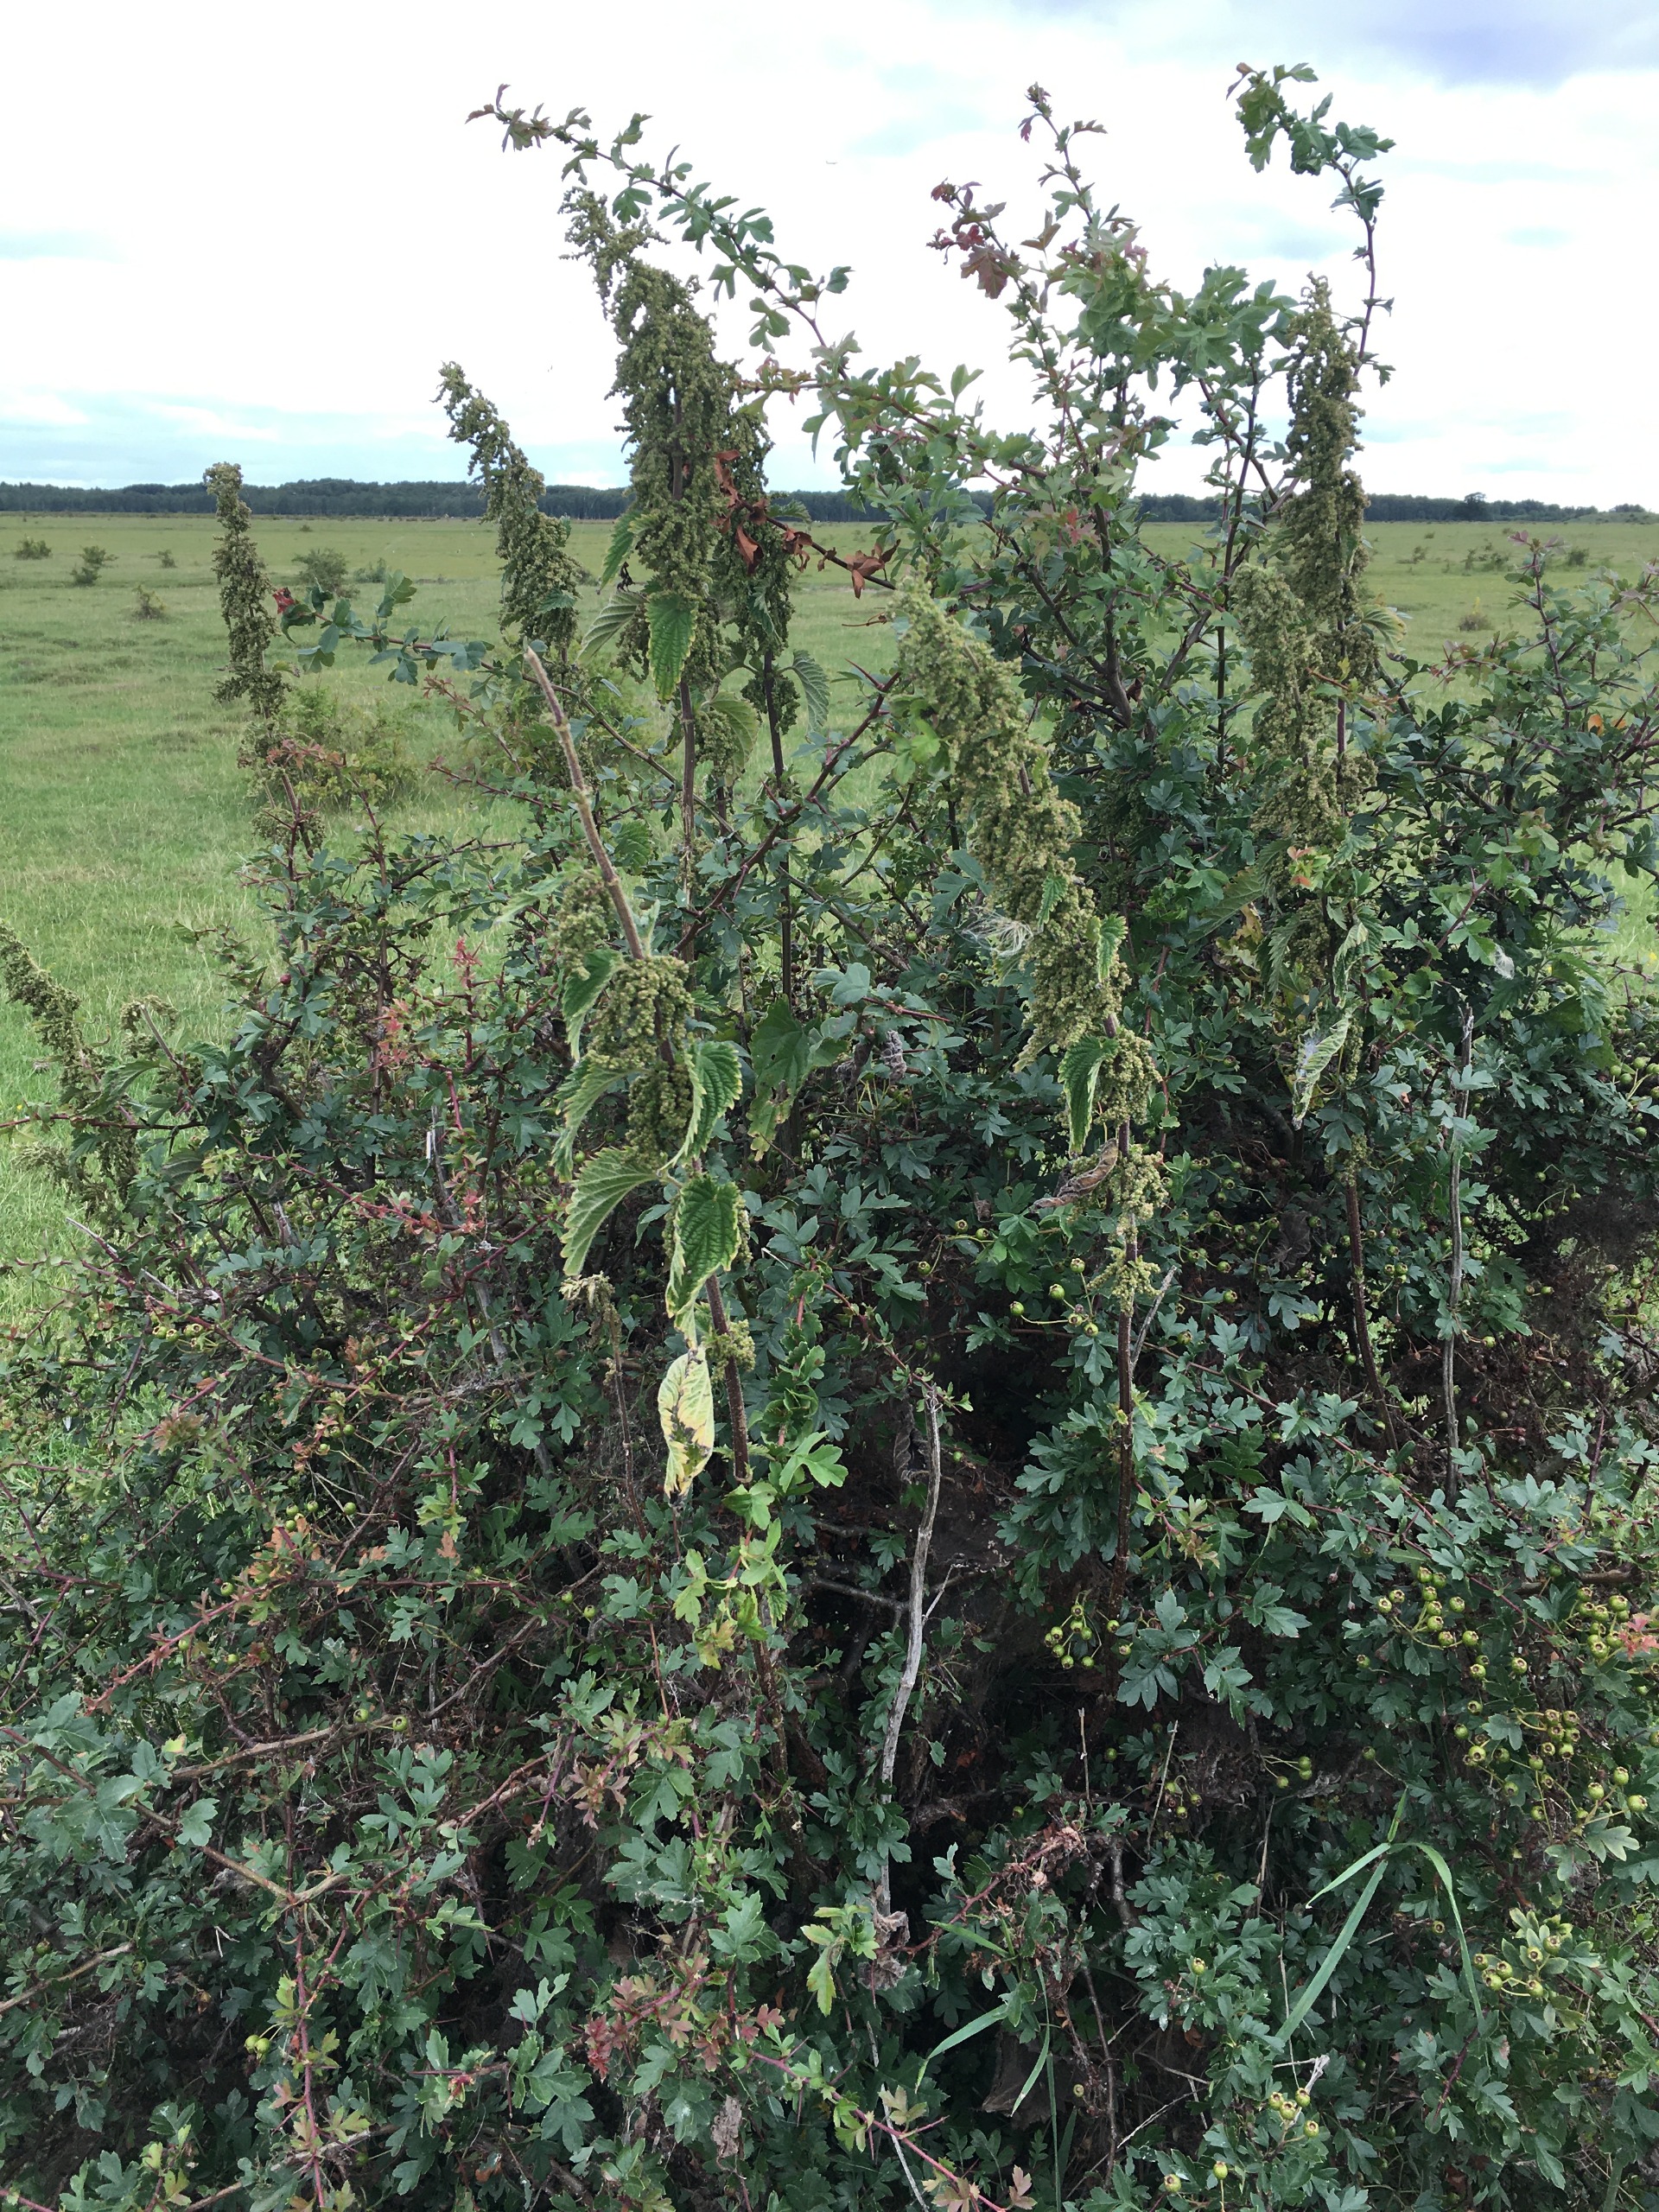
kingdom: Plantae
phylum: Tracheophyta
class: Magnoliopsida
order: Rosales
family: Urticaceae
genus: Urtica
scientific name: Urtica dioica
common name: Stor nælde
